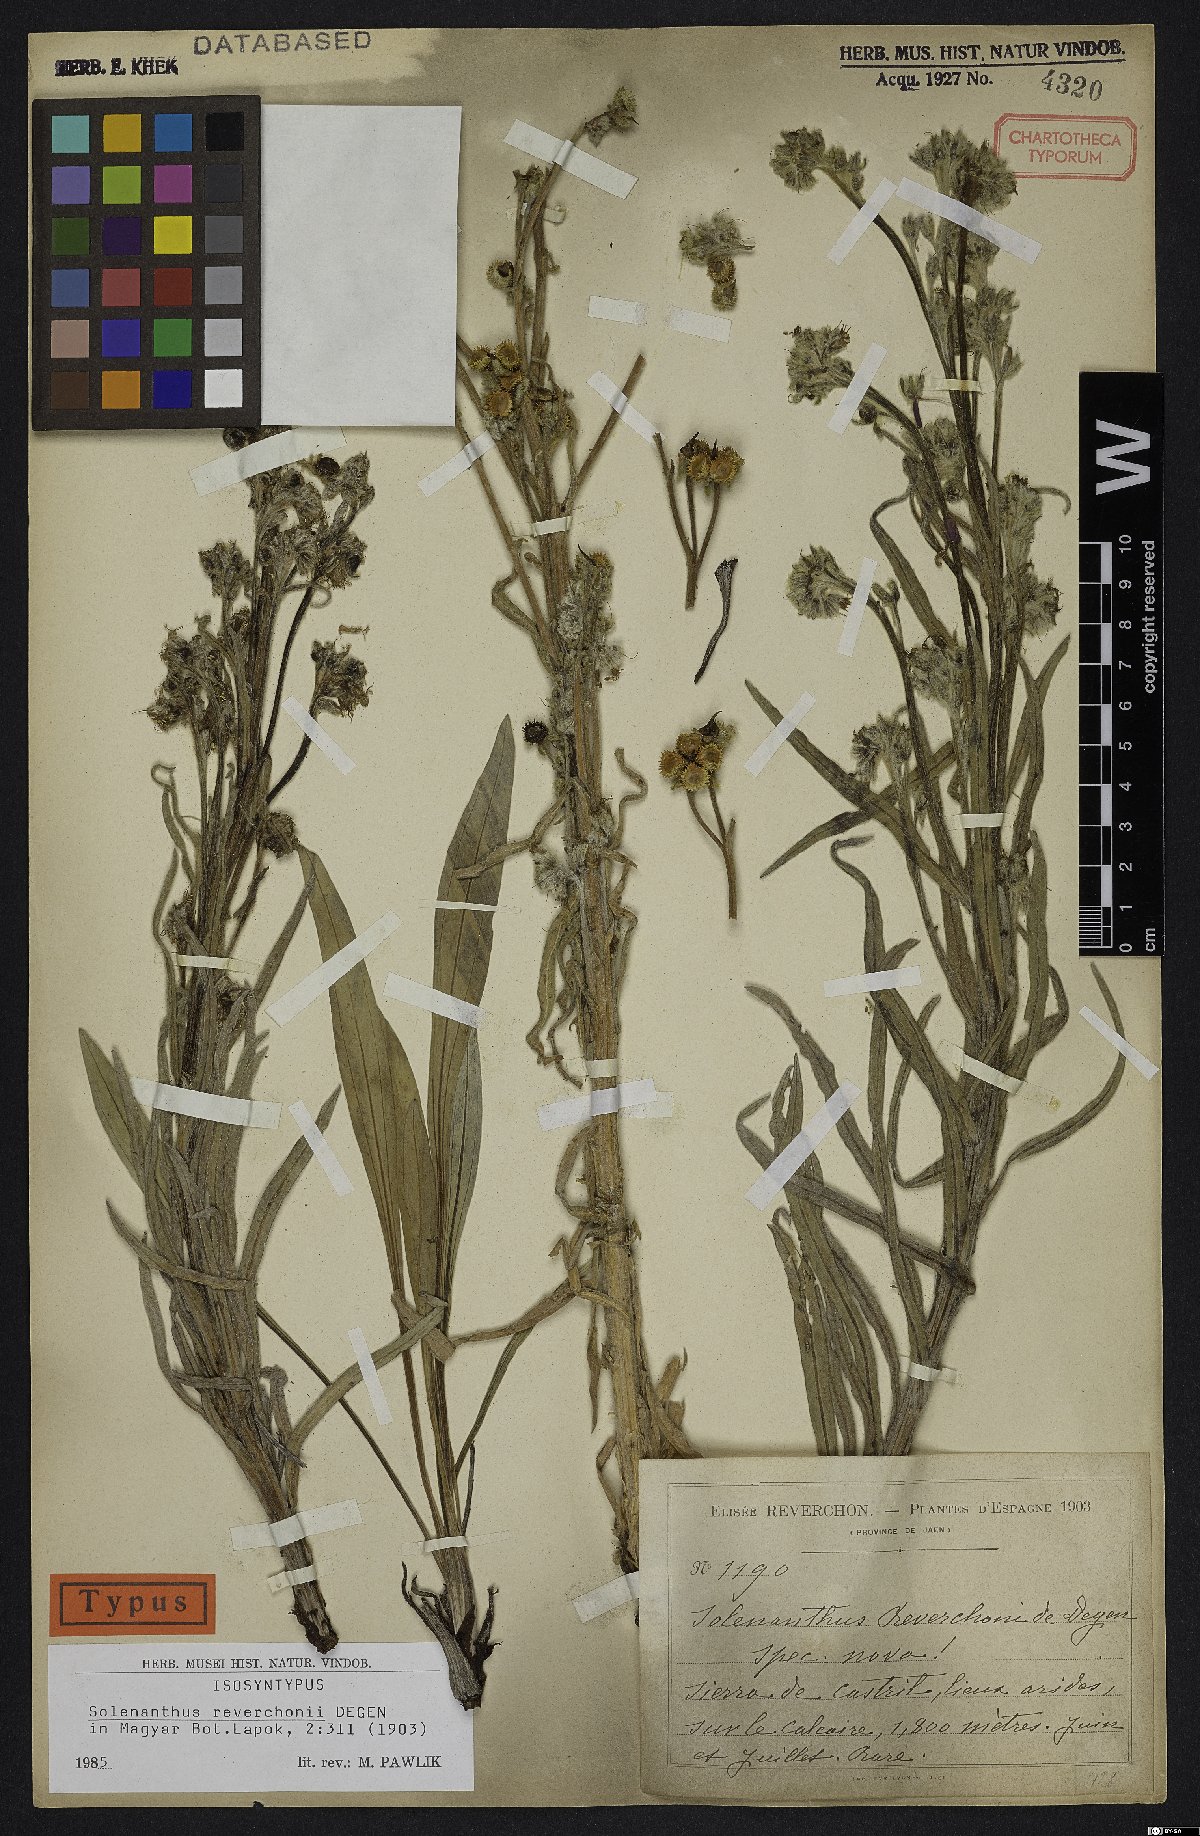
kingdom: Plantae
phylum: Tracheophyta
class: Magnoliopsida
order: Boraginales
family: Boraginaceae
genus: Solenanthus
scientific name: Solenanthus reverchonii
